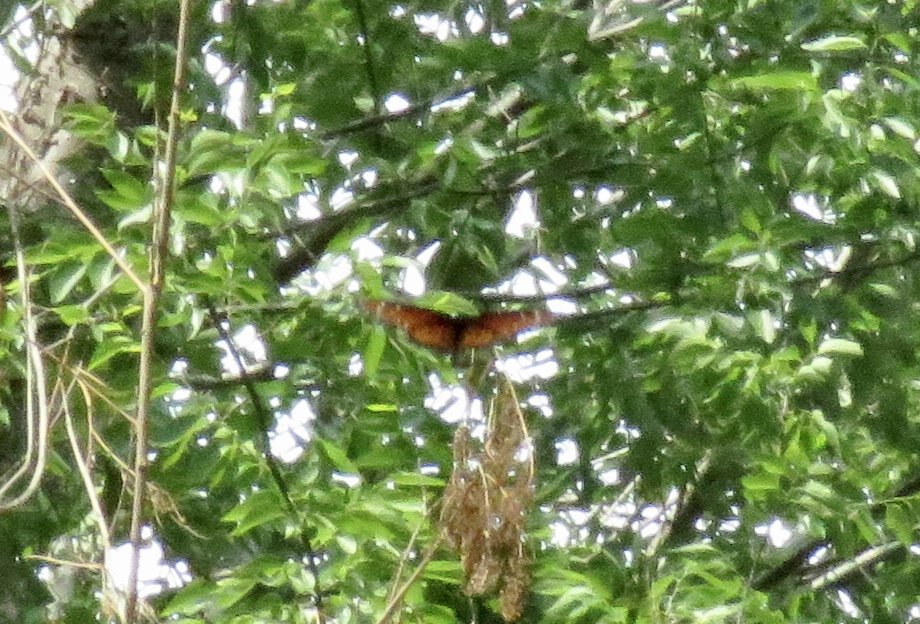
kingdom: Animalia
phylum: Arthropoda
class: Insecta
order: Lepidoptera
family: Nymphalidae
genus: Danaus
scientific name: Danaus gilippus
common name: Queen
